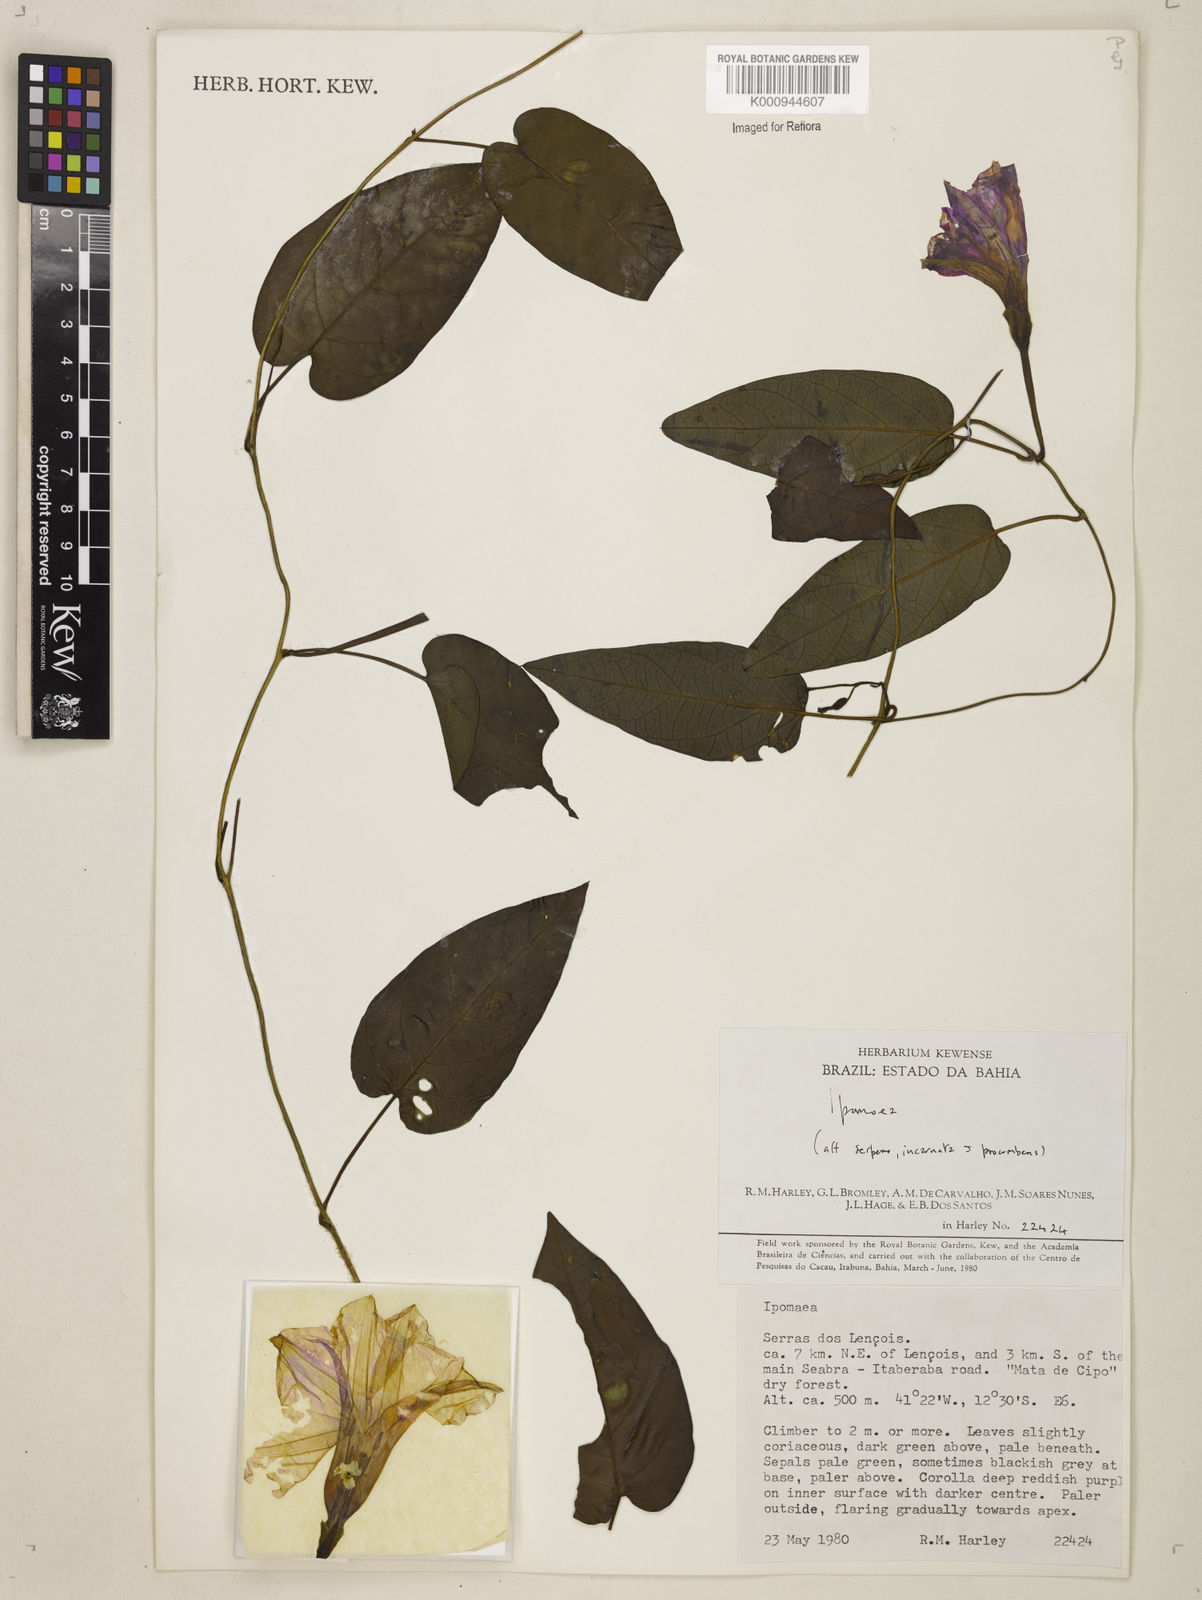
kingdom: Plantae
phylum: Tracheophyta
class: Magnoliopsida
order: Solanales
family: Convolvulaceae
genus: Ipomoea
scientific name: Ipomoea chapadensis
